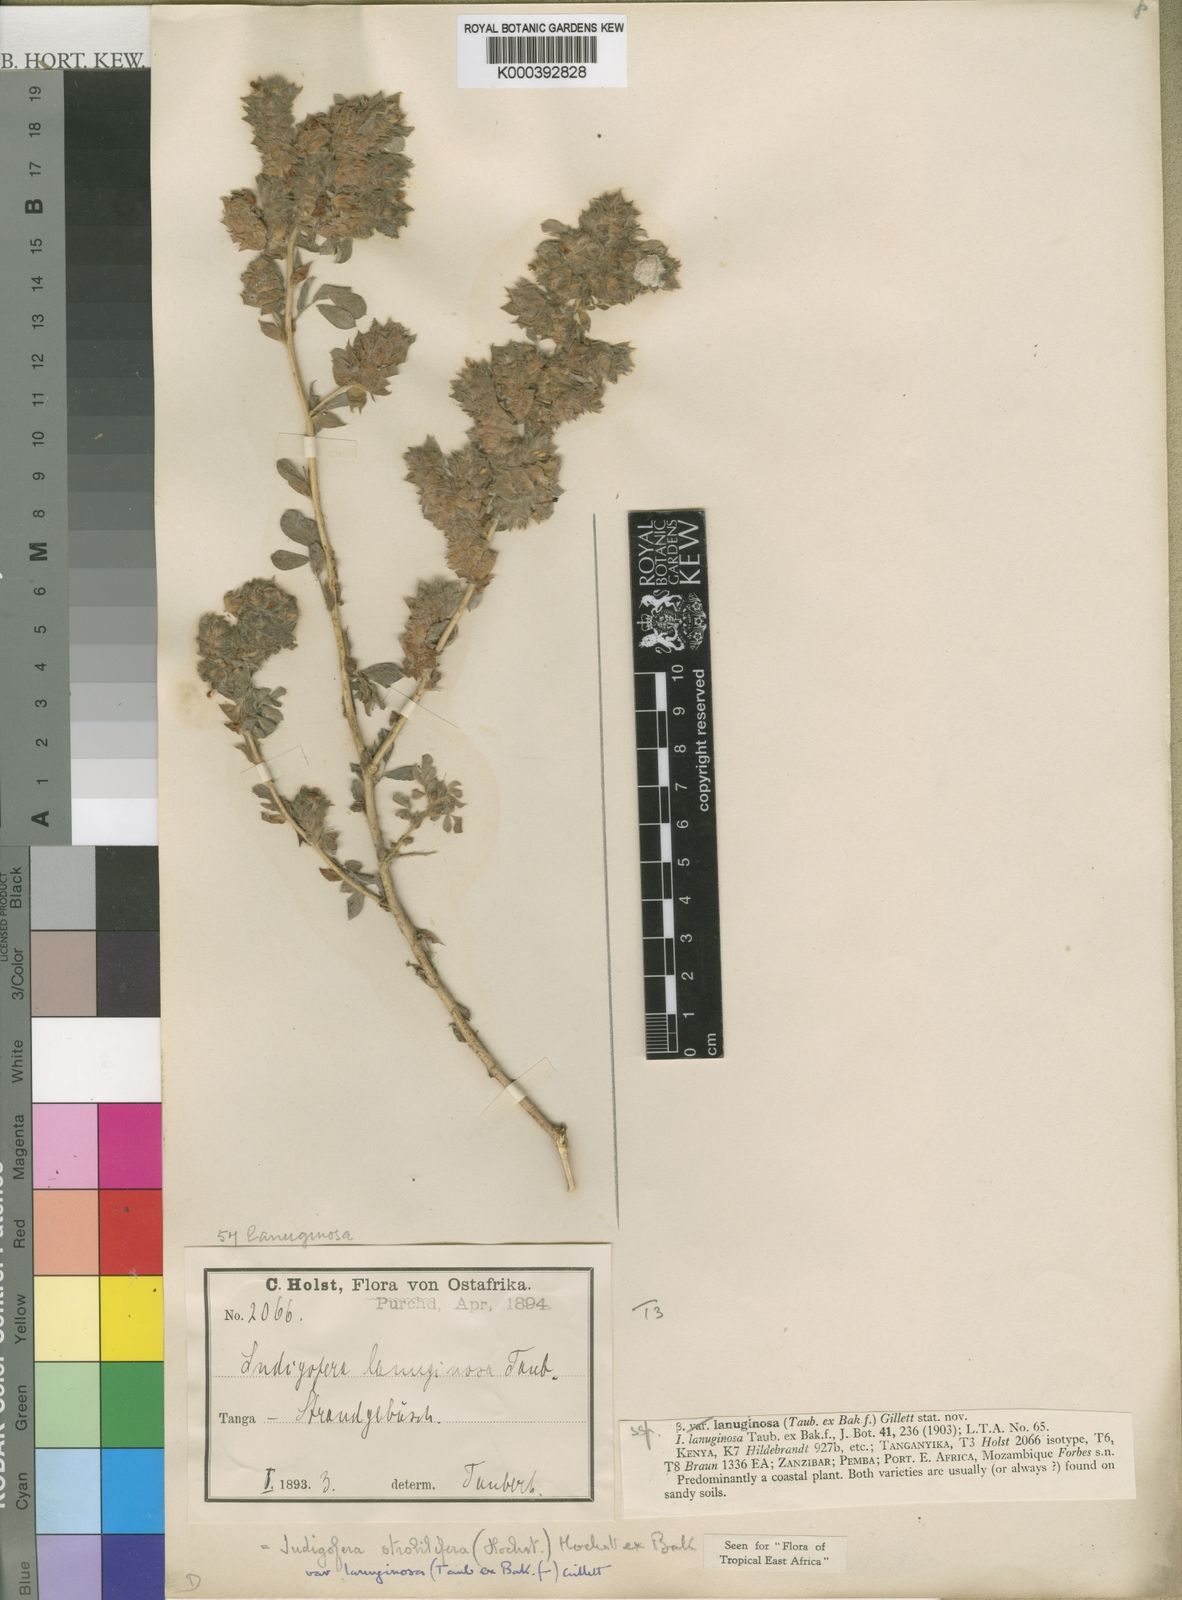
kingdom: Plantae
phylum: Tracheophyta
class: Magnoliopsida
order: Fabales
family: Fabaceae
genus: Indigofera
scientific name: Indigofera strobilifera
